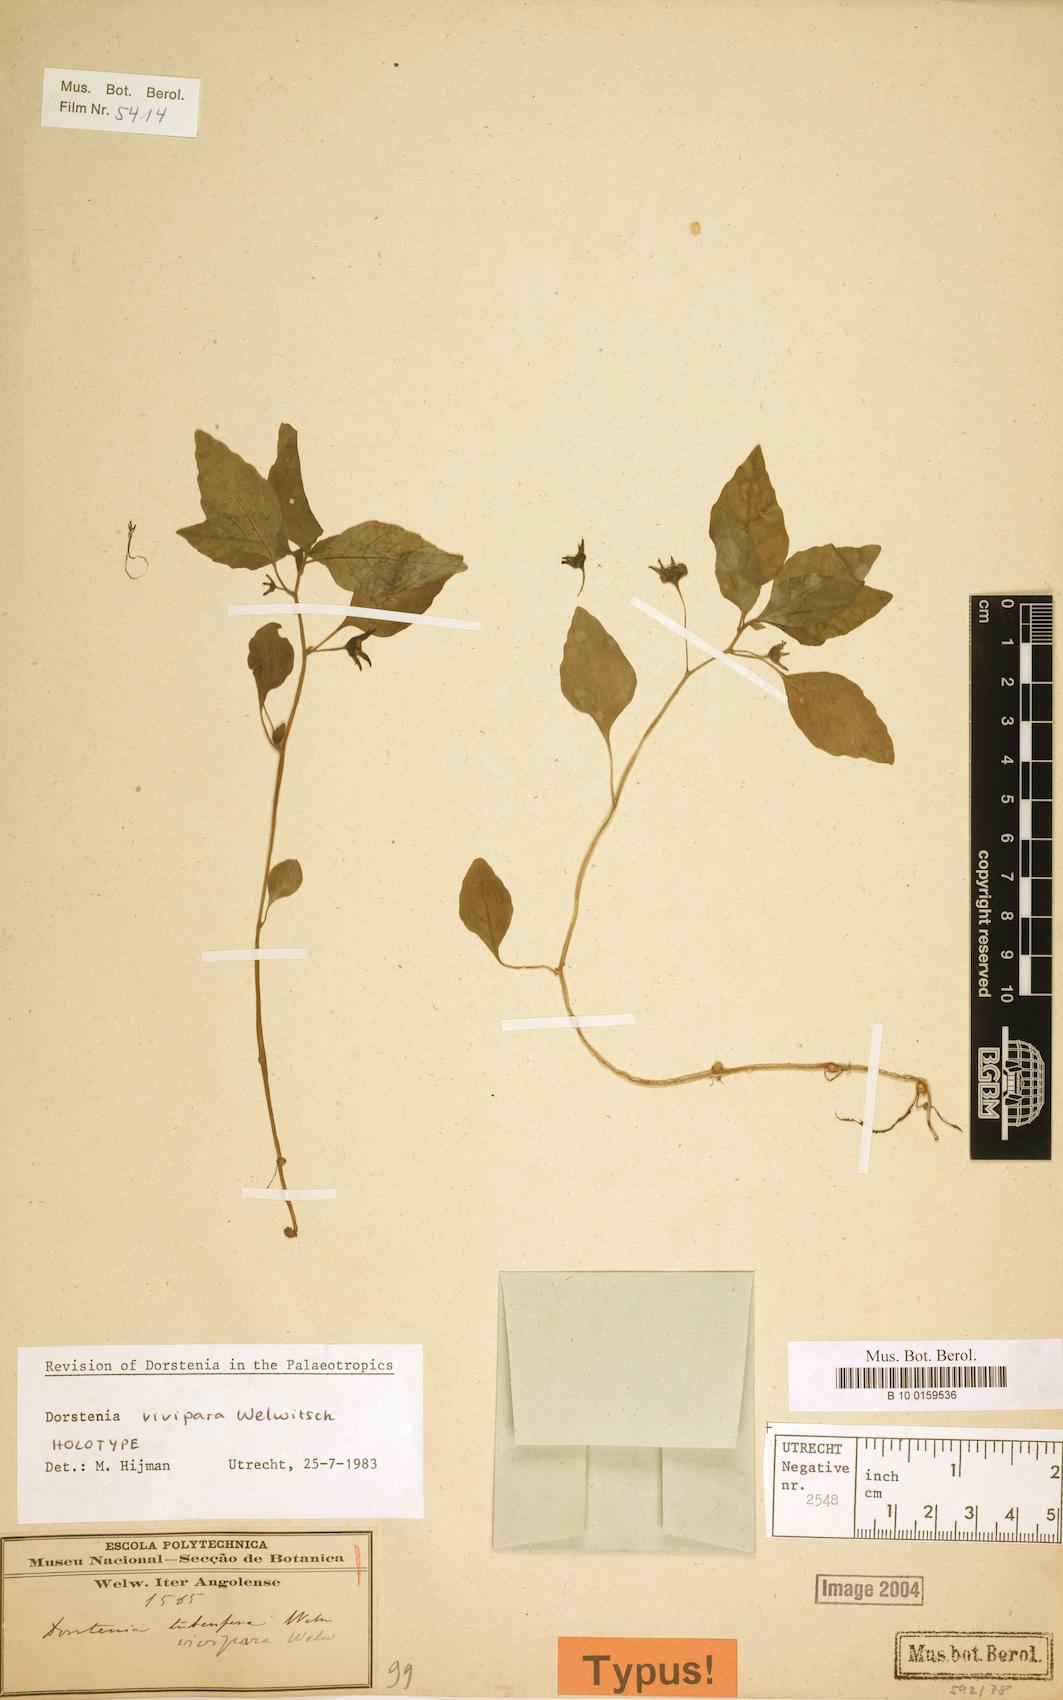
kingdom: Plantae
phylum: Tracheophyta
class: Magnoliopsida
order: Rosales
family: Moraceae
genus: Dorstenia
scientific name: Dorstenia vivipara
